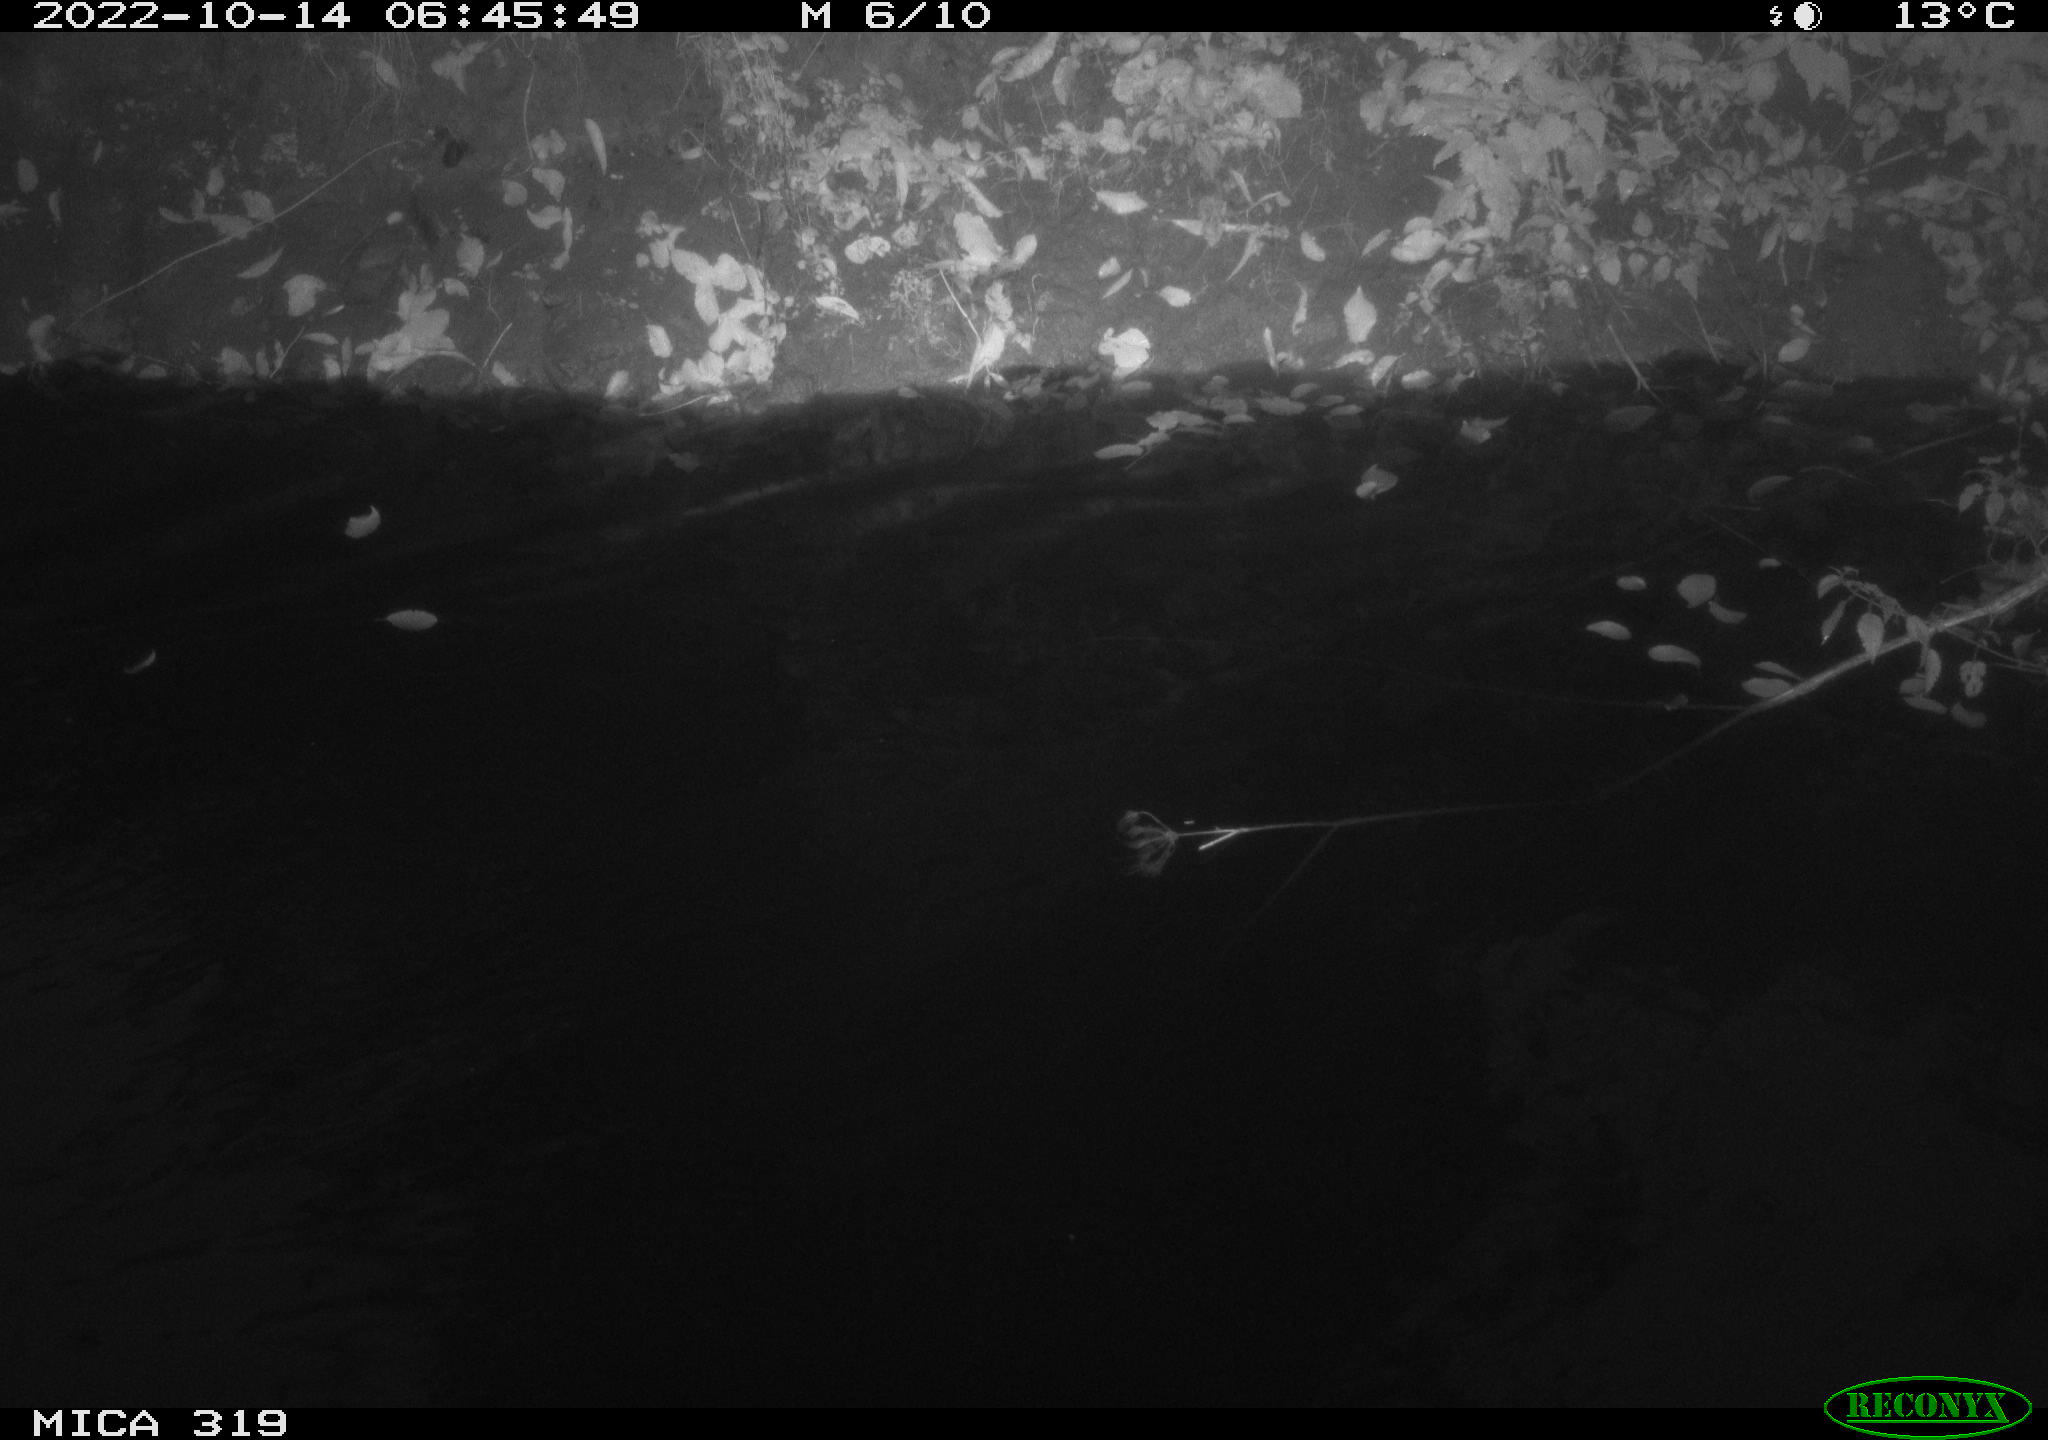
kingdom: Animalia
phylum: Chordata
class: Aves
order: Anseriformes
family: Anatidae
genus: Anas
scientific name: Anas
